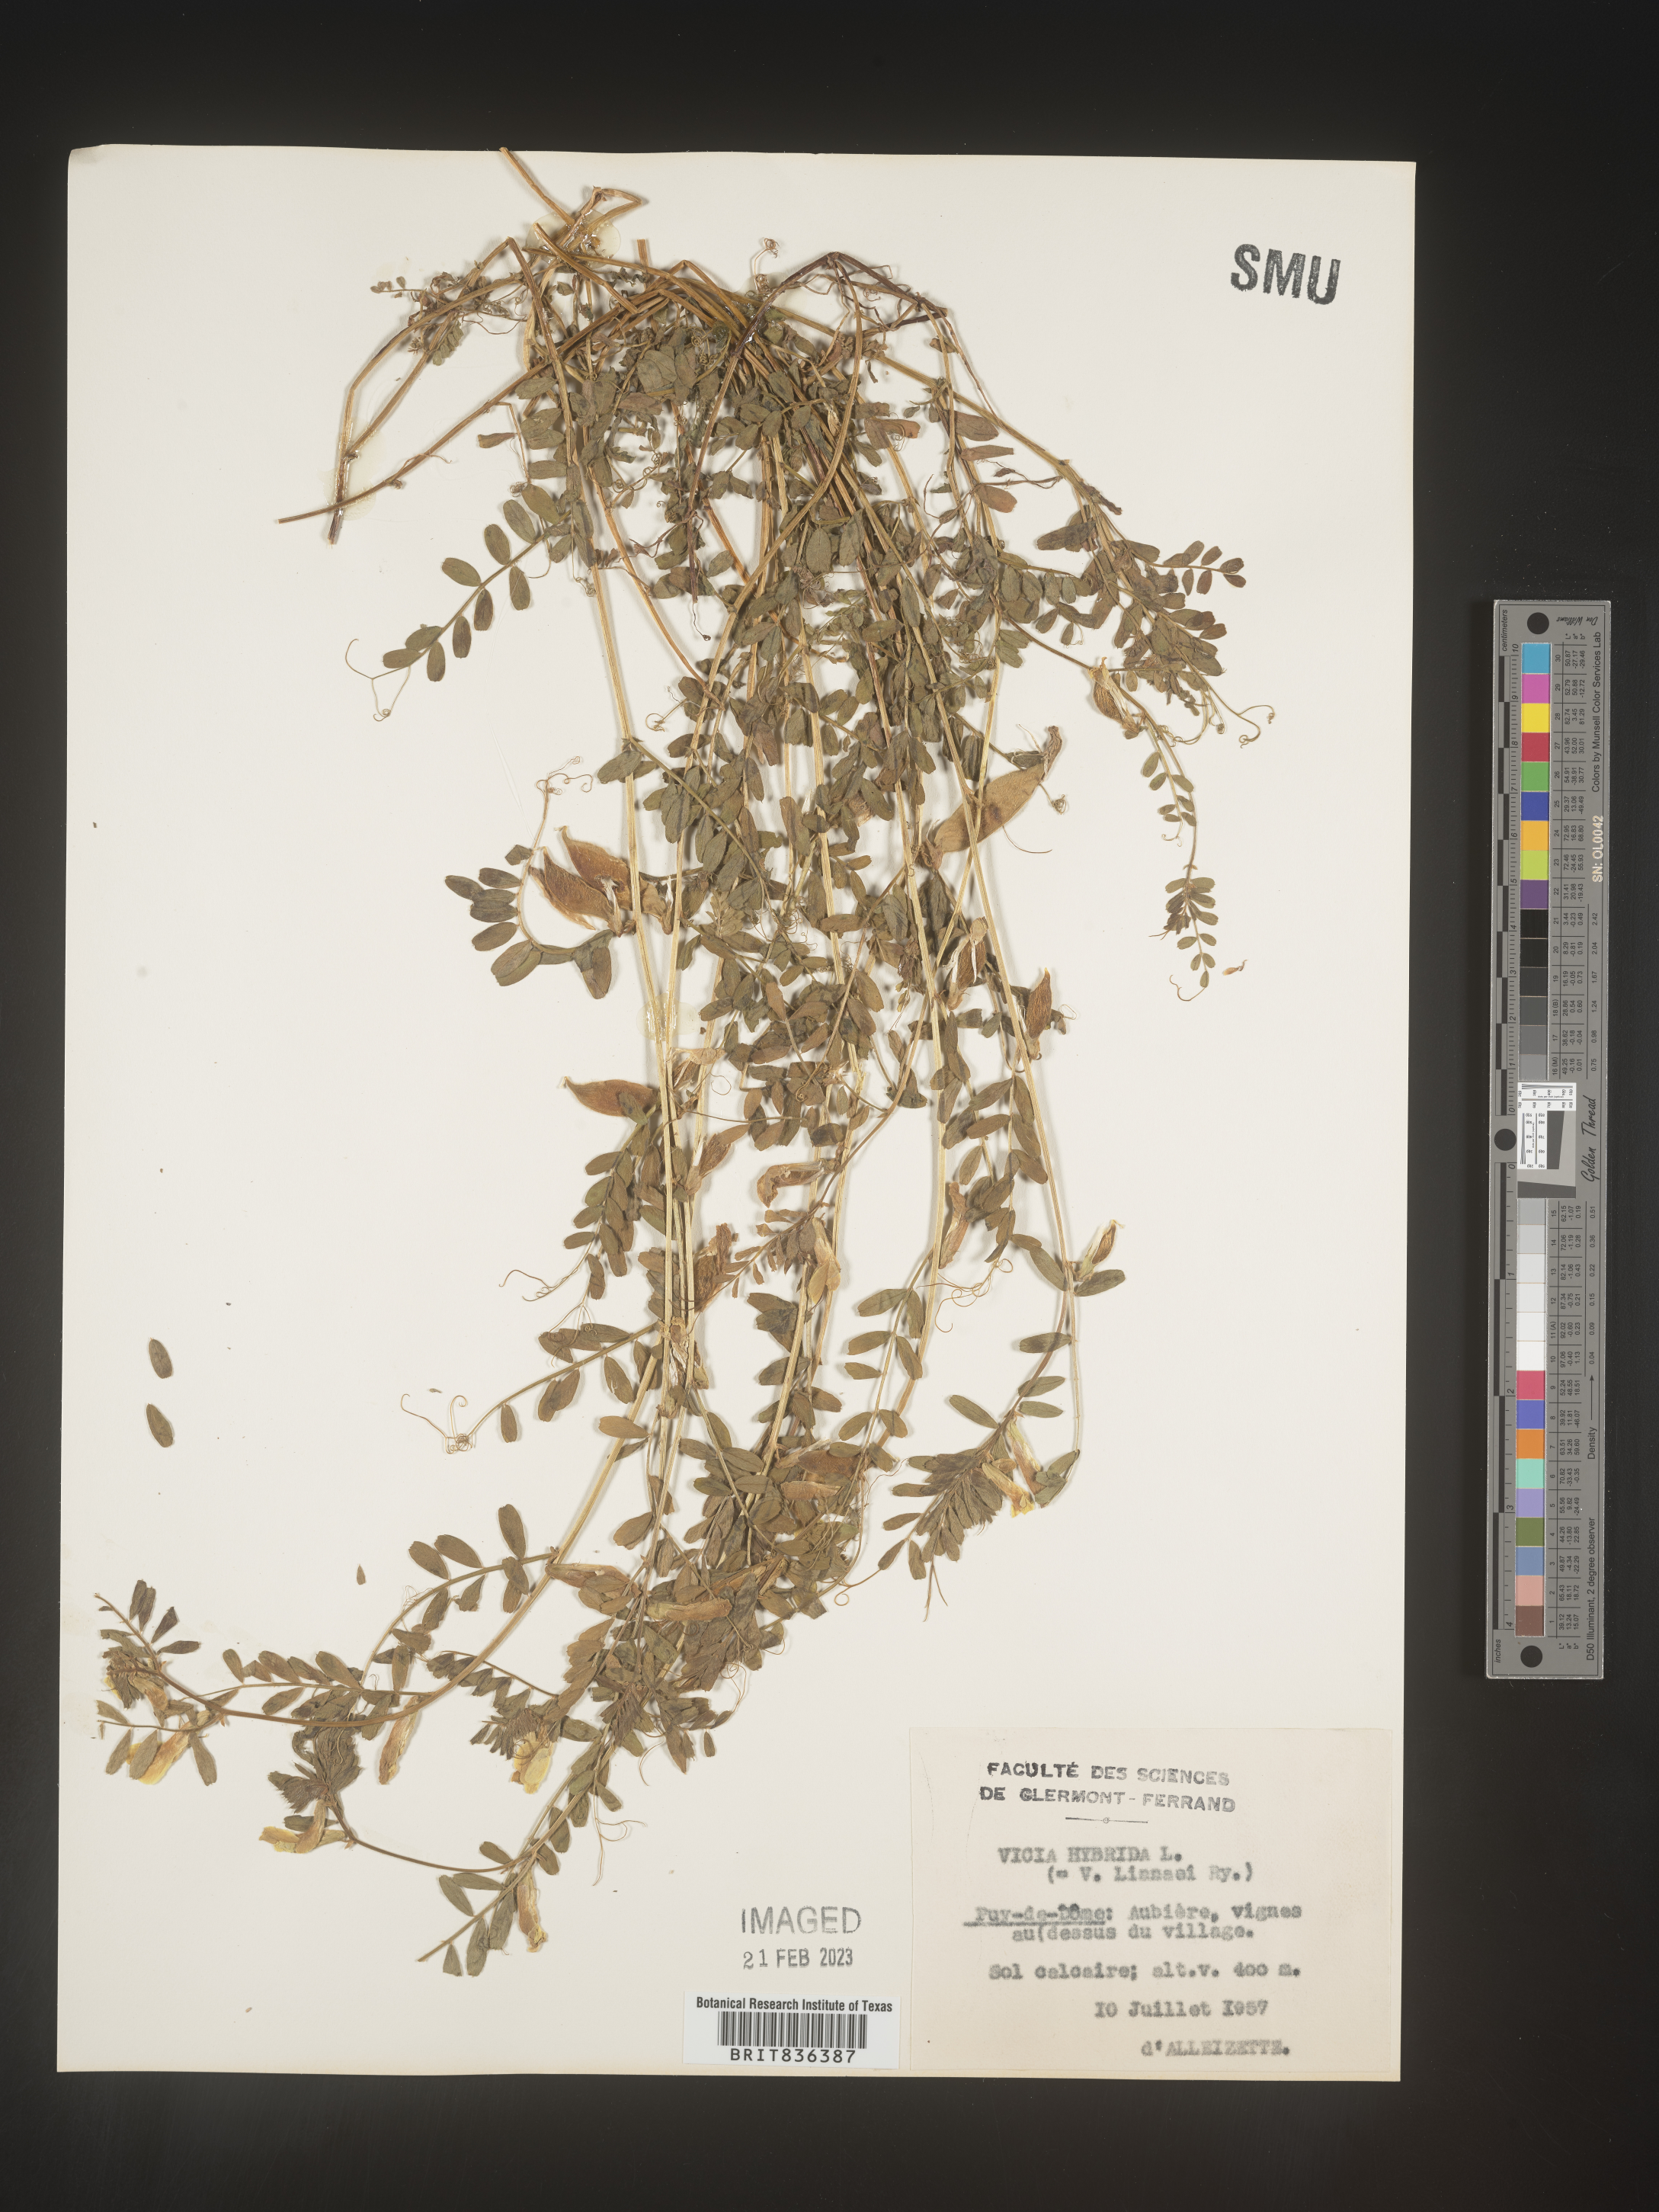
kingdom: Plantae
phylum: Tracheophyta
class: Magnoliopsida
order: Fabales
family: Fabaceae
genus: Vicia
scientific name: Vicia
